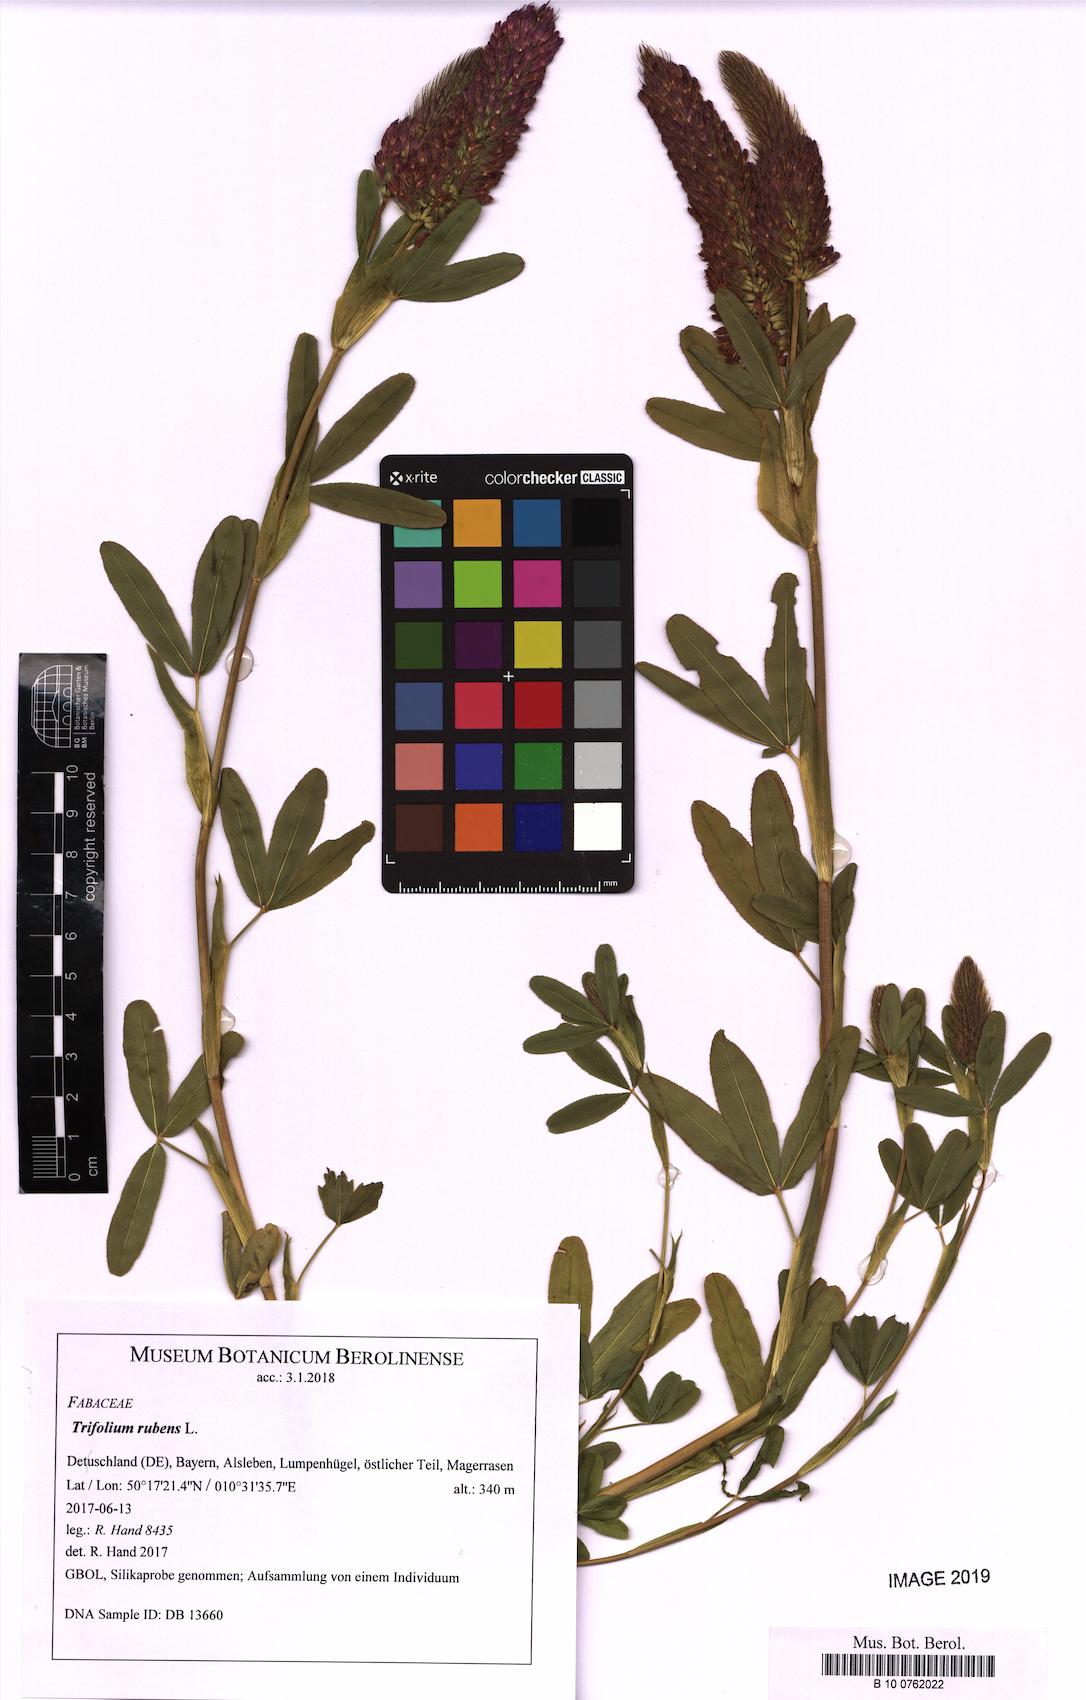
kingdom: Plantae
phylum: Tracheophyta
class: Magnoliopsida
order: Fabales
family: Fabaceae
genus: Trifolium
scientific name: Trifolium rubens
